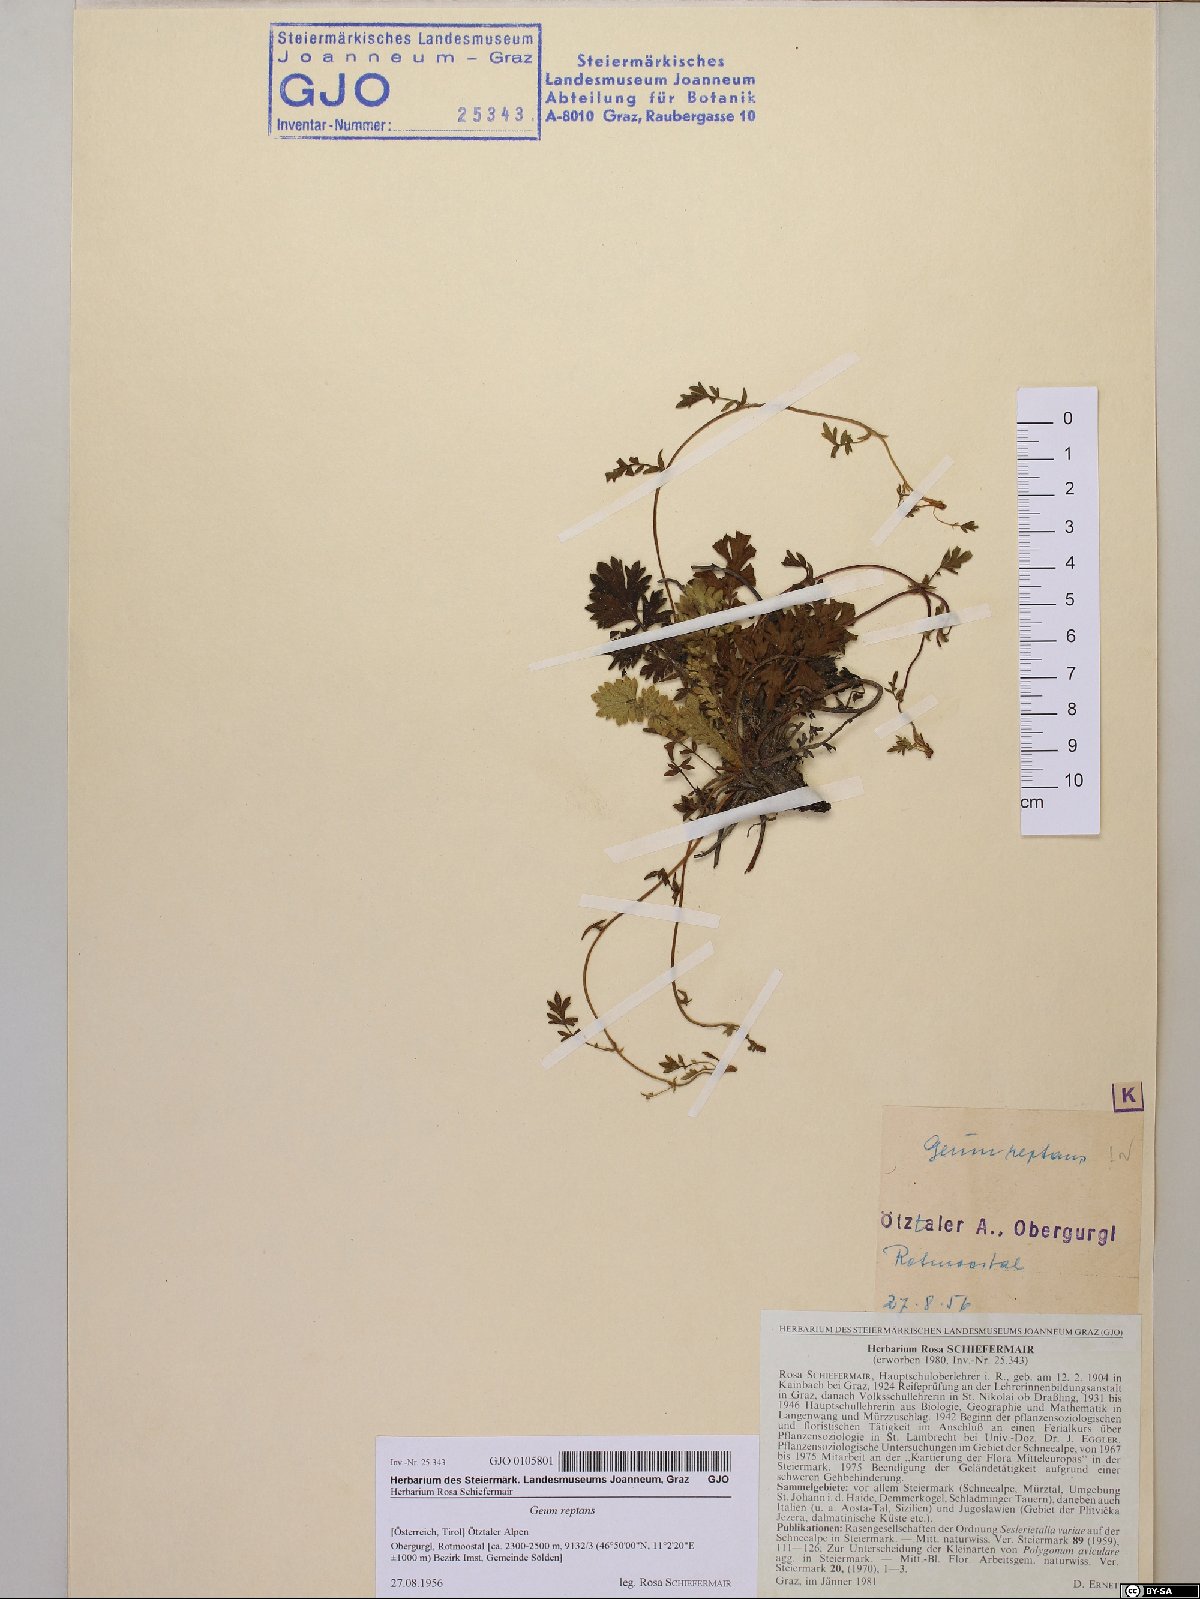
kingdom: Plantae
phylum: Tracheophyta
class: Magnoliopsida
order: Rosales
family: Rosaceae
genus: Geum
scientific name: Geum reptans
